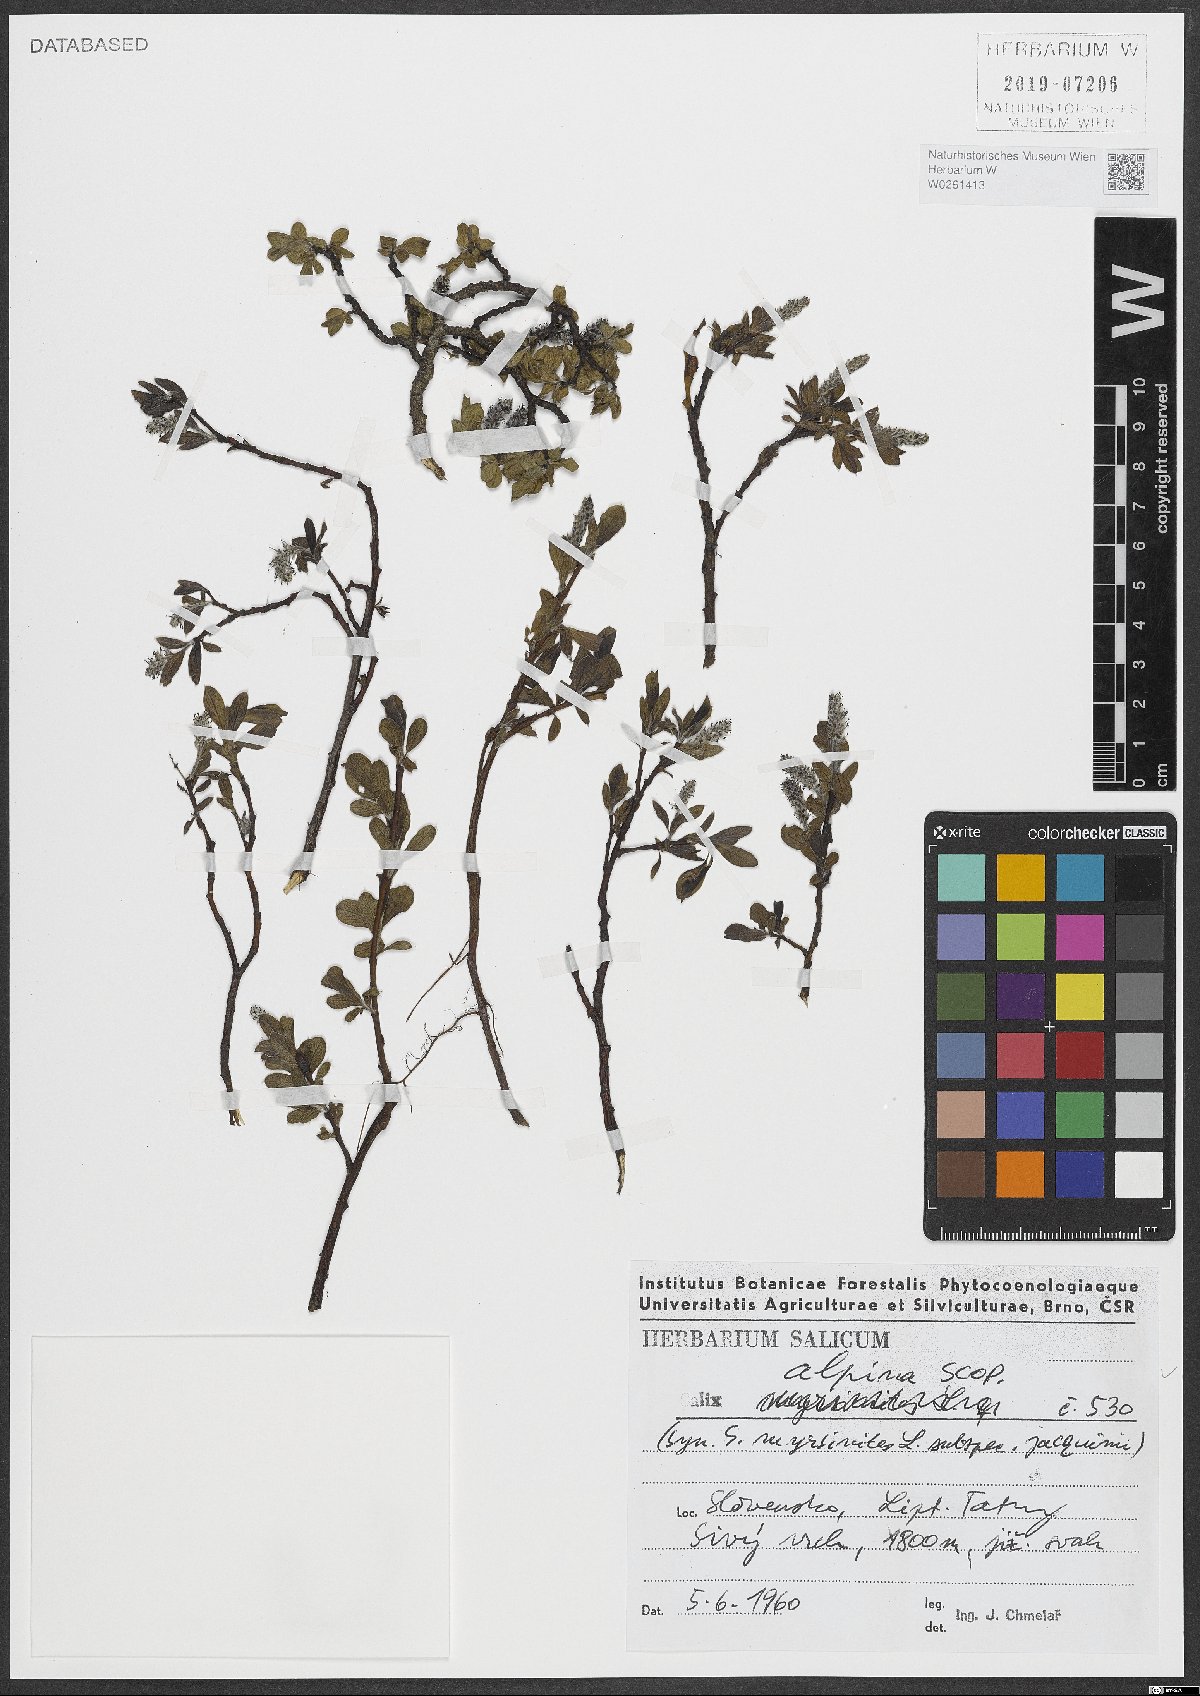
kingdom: Plantae
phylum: Tracheophyta
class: Magnoliopsida
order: Malpighiales
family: Salicaceae
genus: Salix
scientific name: Salix alpina
